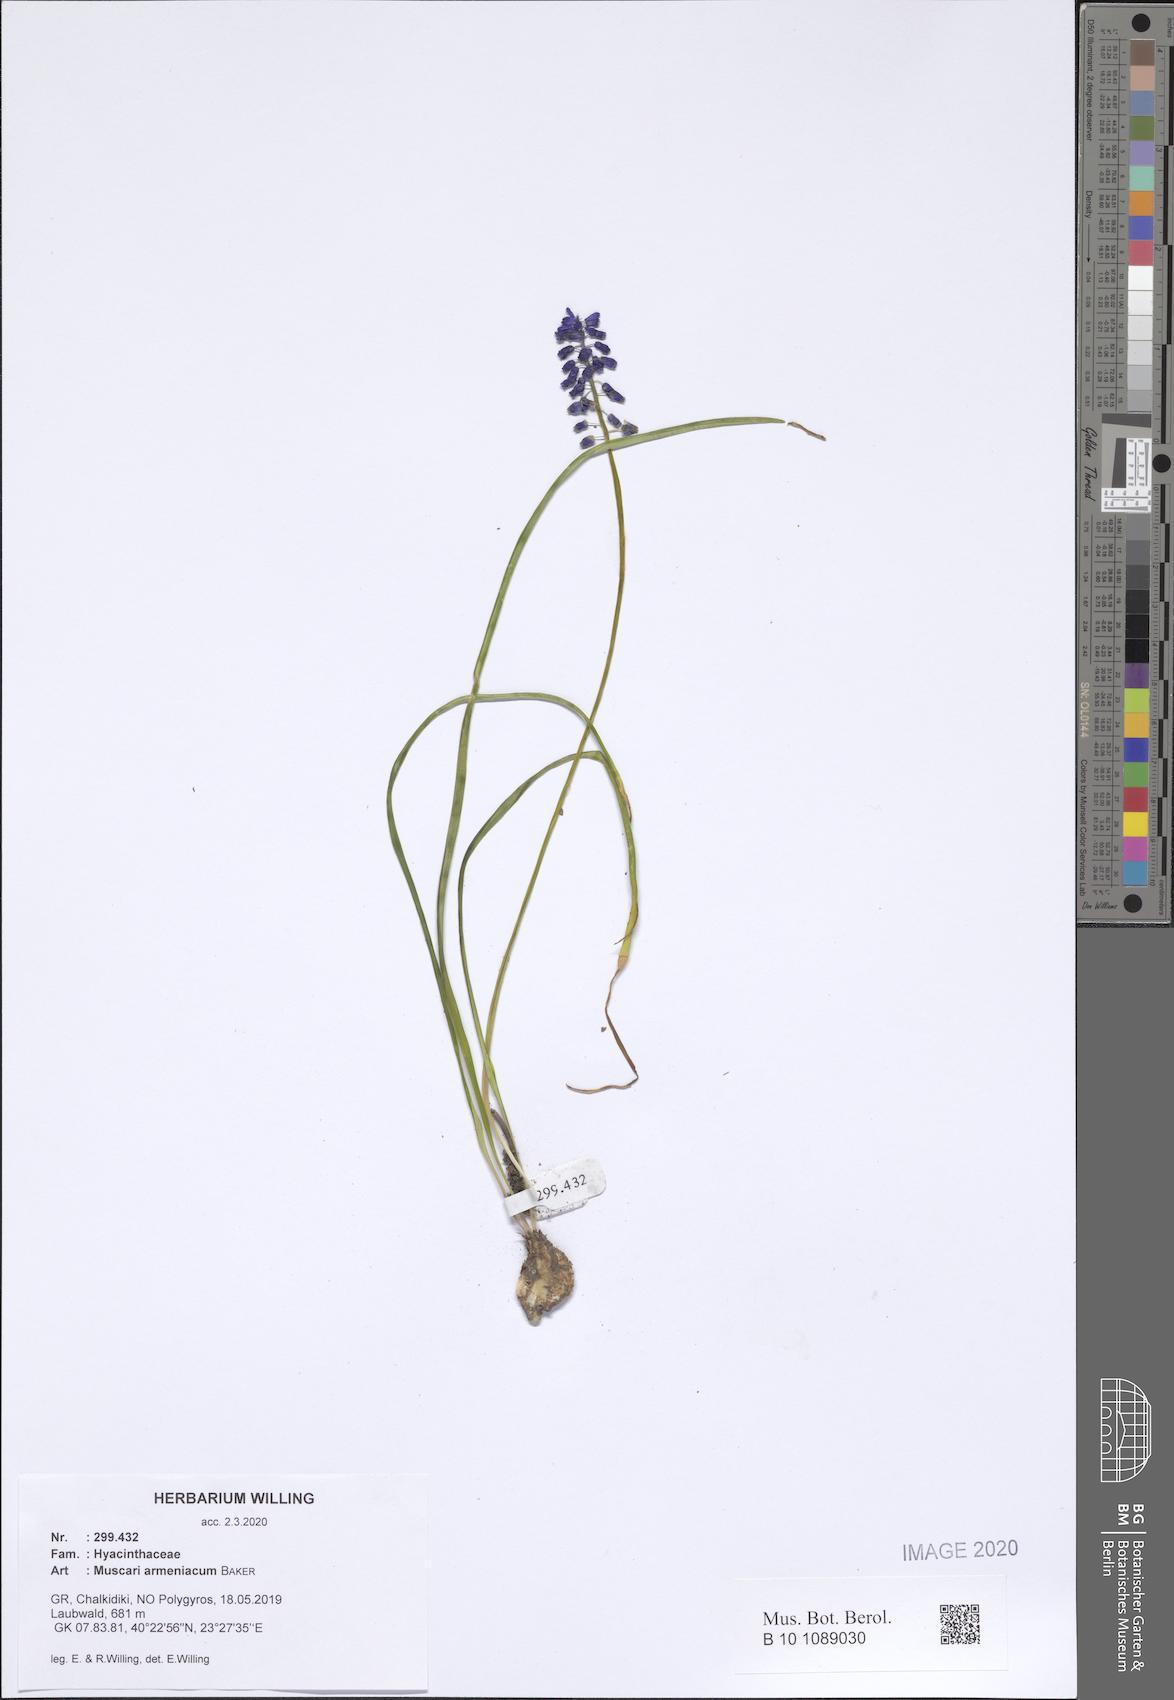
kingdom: Plantae
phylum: Tracheophyta
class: Liliopsida
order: Asparagales
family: Asparagaceae
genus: Muscari
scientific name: Muscari armeniacum
